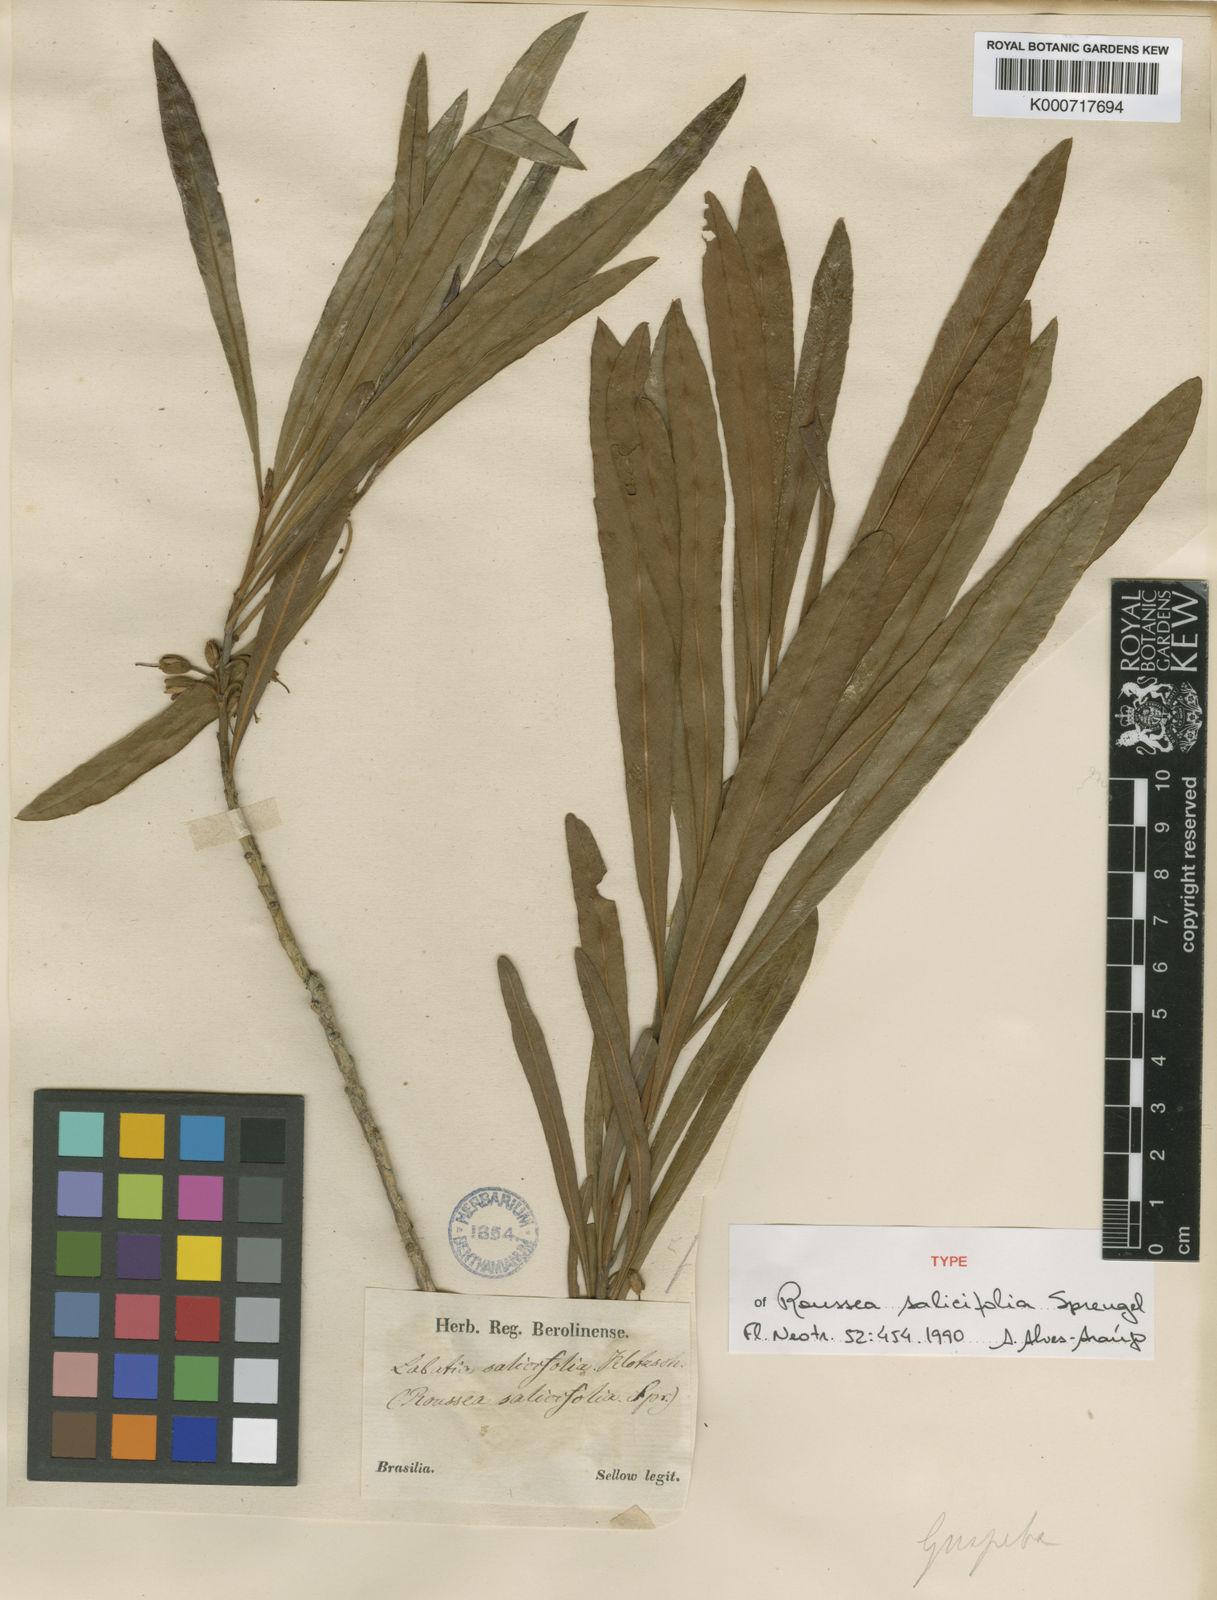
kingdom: Plantae
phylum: Tracheophyta
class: Magnoliopsida
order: Ericales
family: Sapotaceae
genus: Pouteria
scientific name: Pouteria salicifolia
